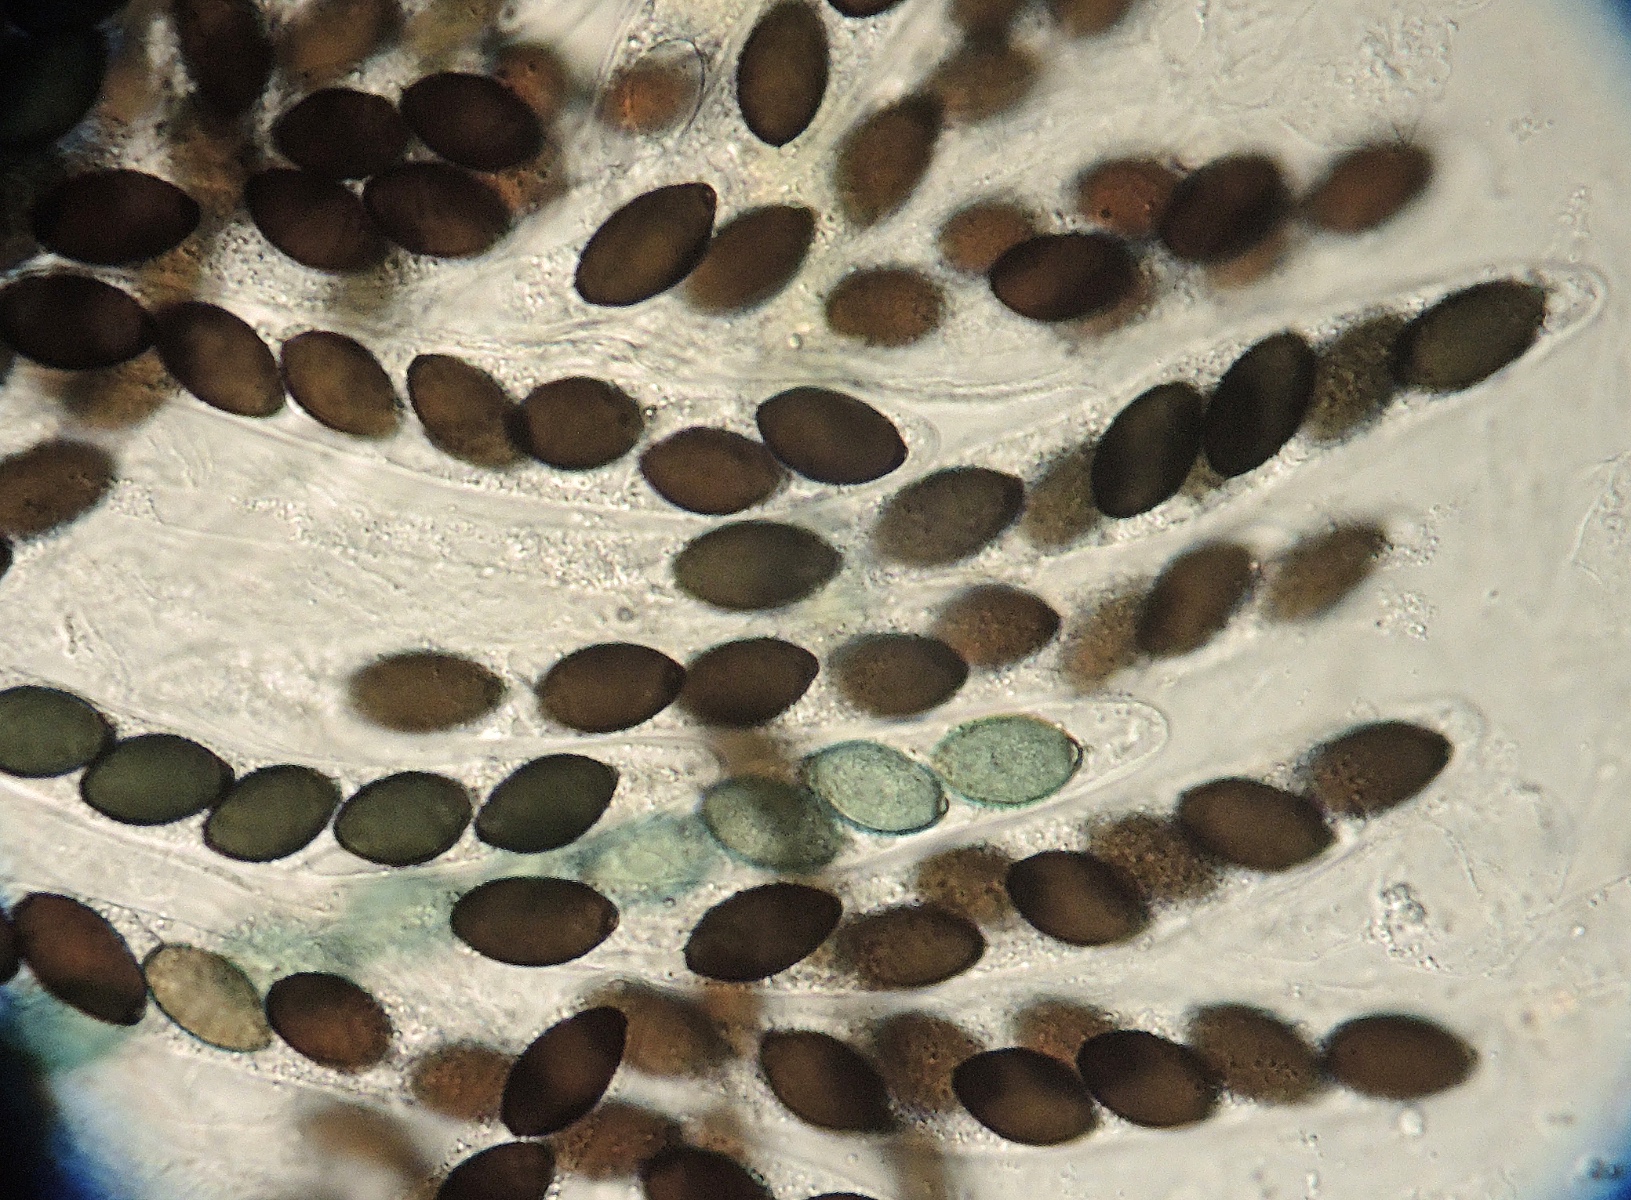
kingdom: Fungi
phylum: Ascomycota
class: Sordariomycetes
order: Sordariales
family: Lasiosphaeriaceae
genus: Schizothecium
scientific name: Schizothecium vesticola
